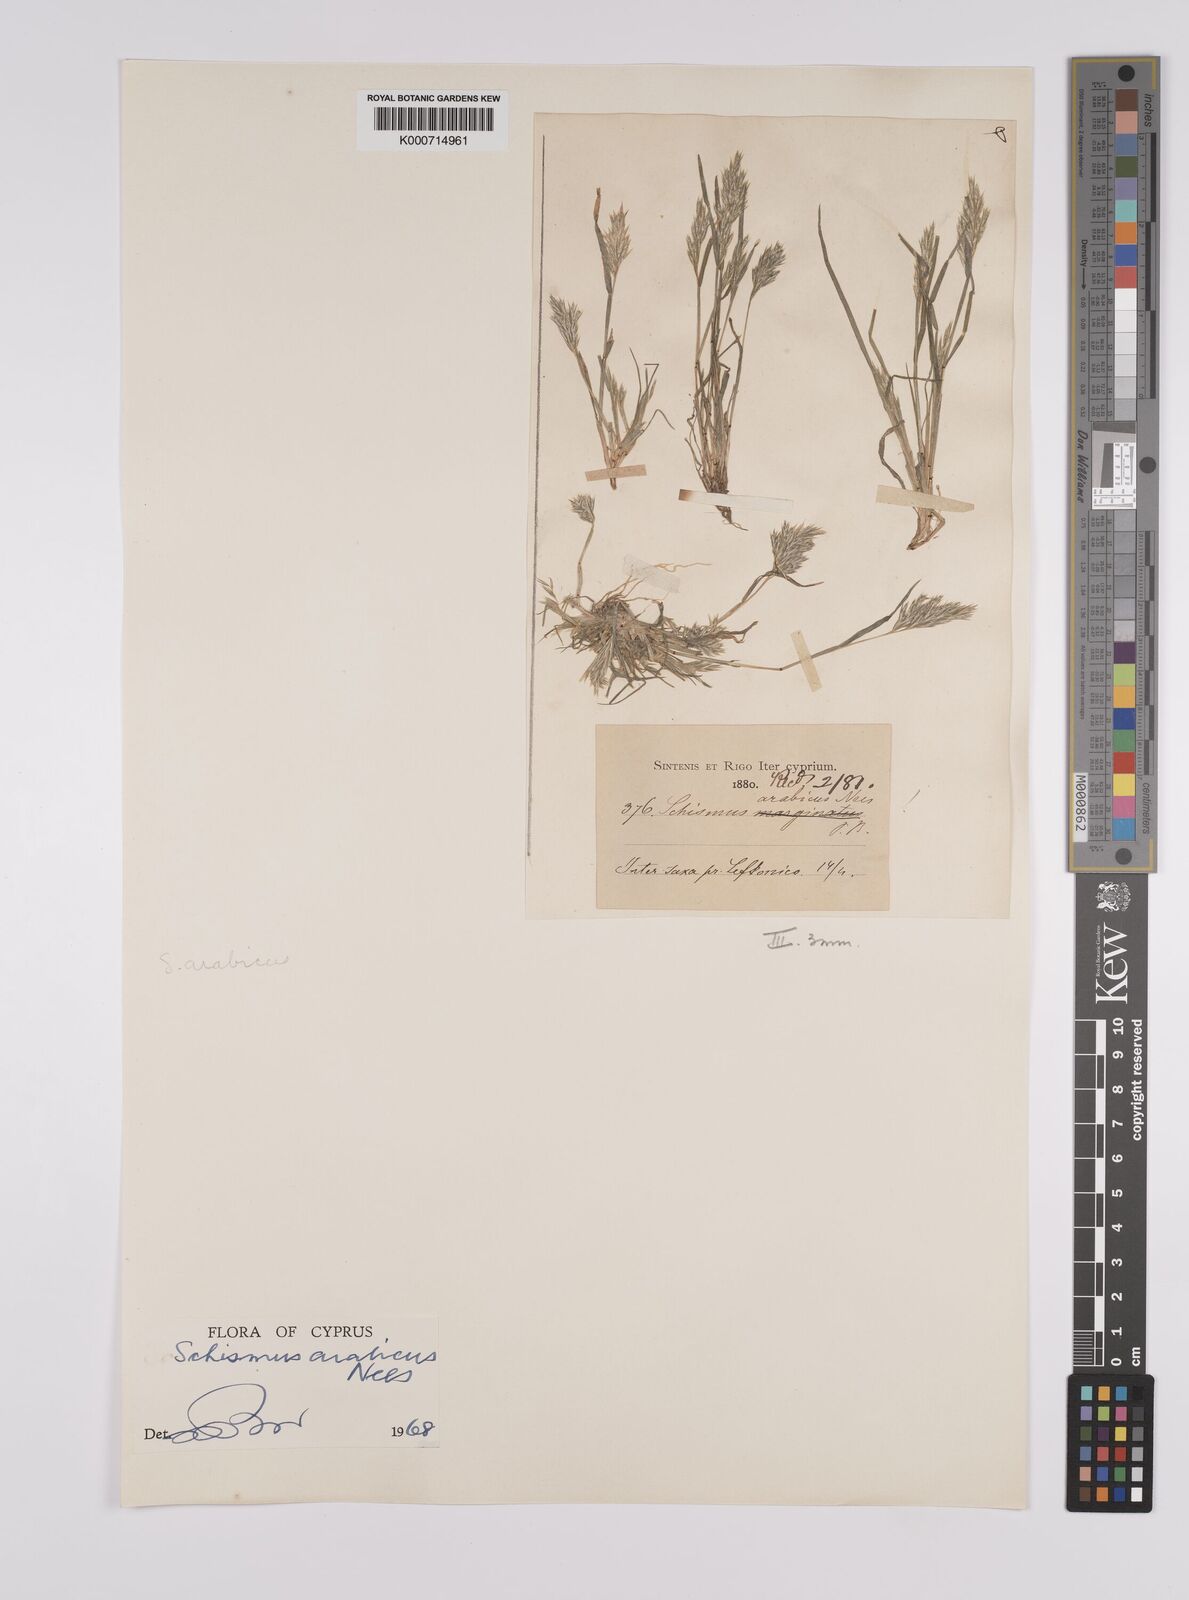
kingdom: Plantae
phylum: Tracheophyta
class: Liliopsida
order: Poales
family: Poaceae
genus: Schismus
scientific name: Schismus arabicus
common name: Arabian schismus
